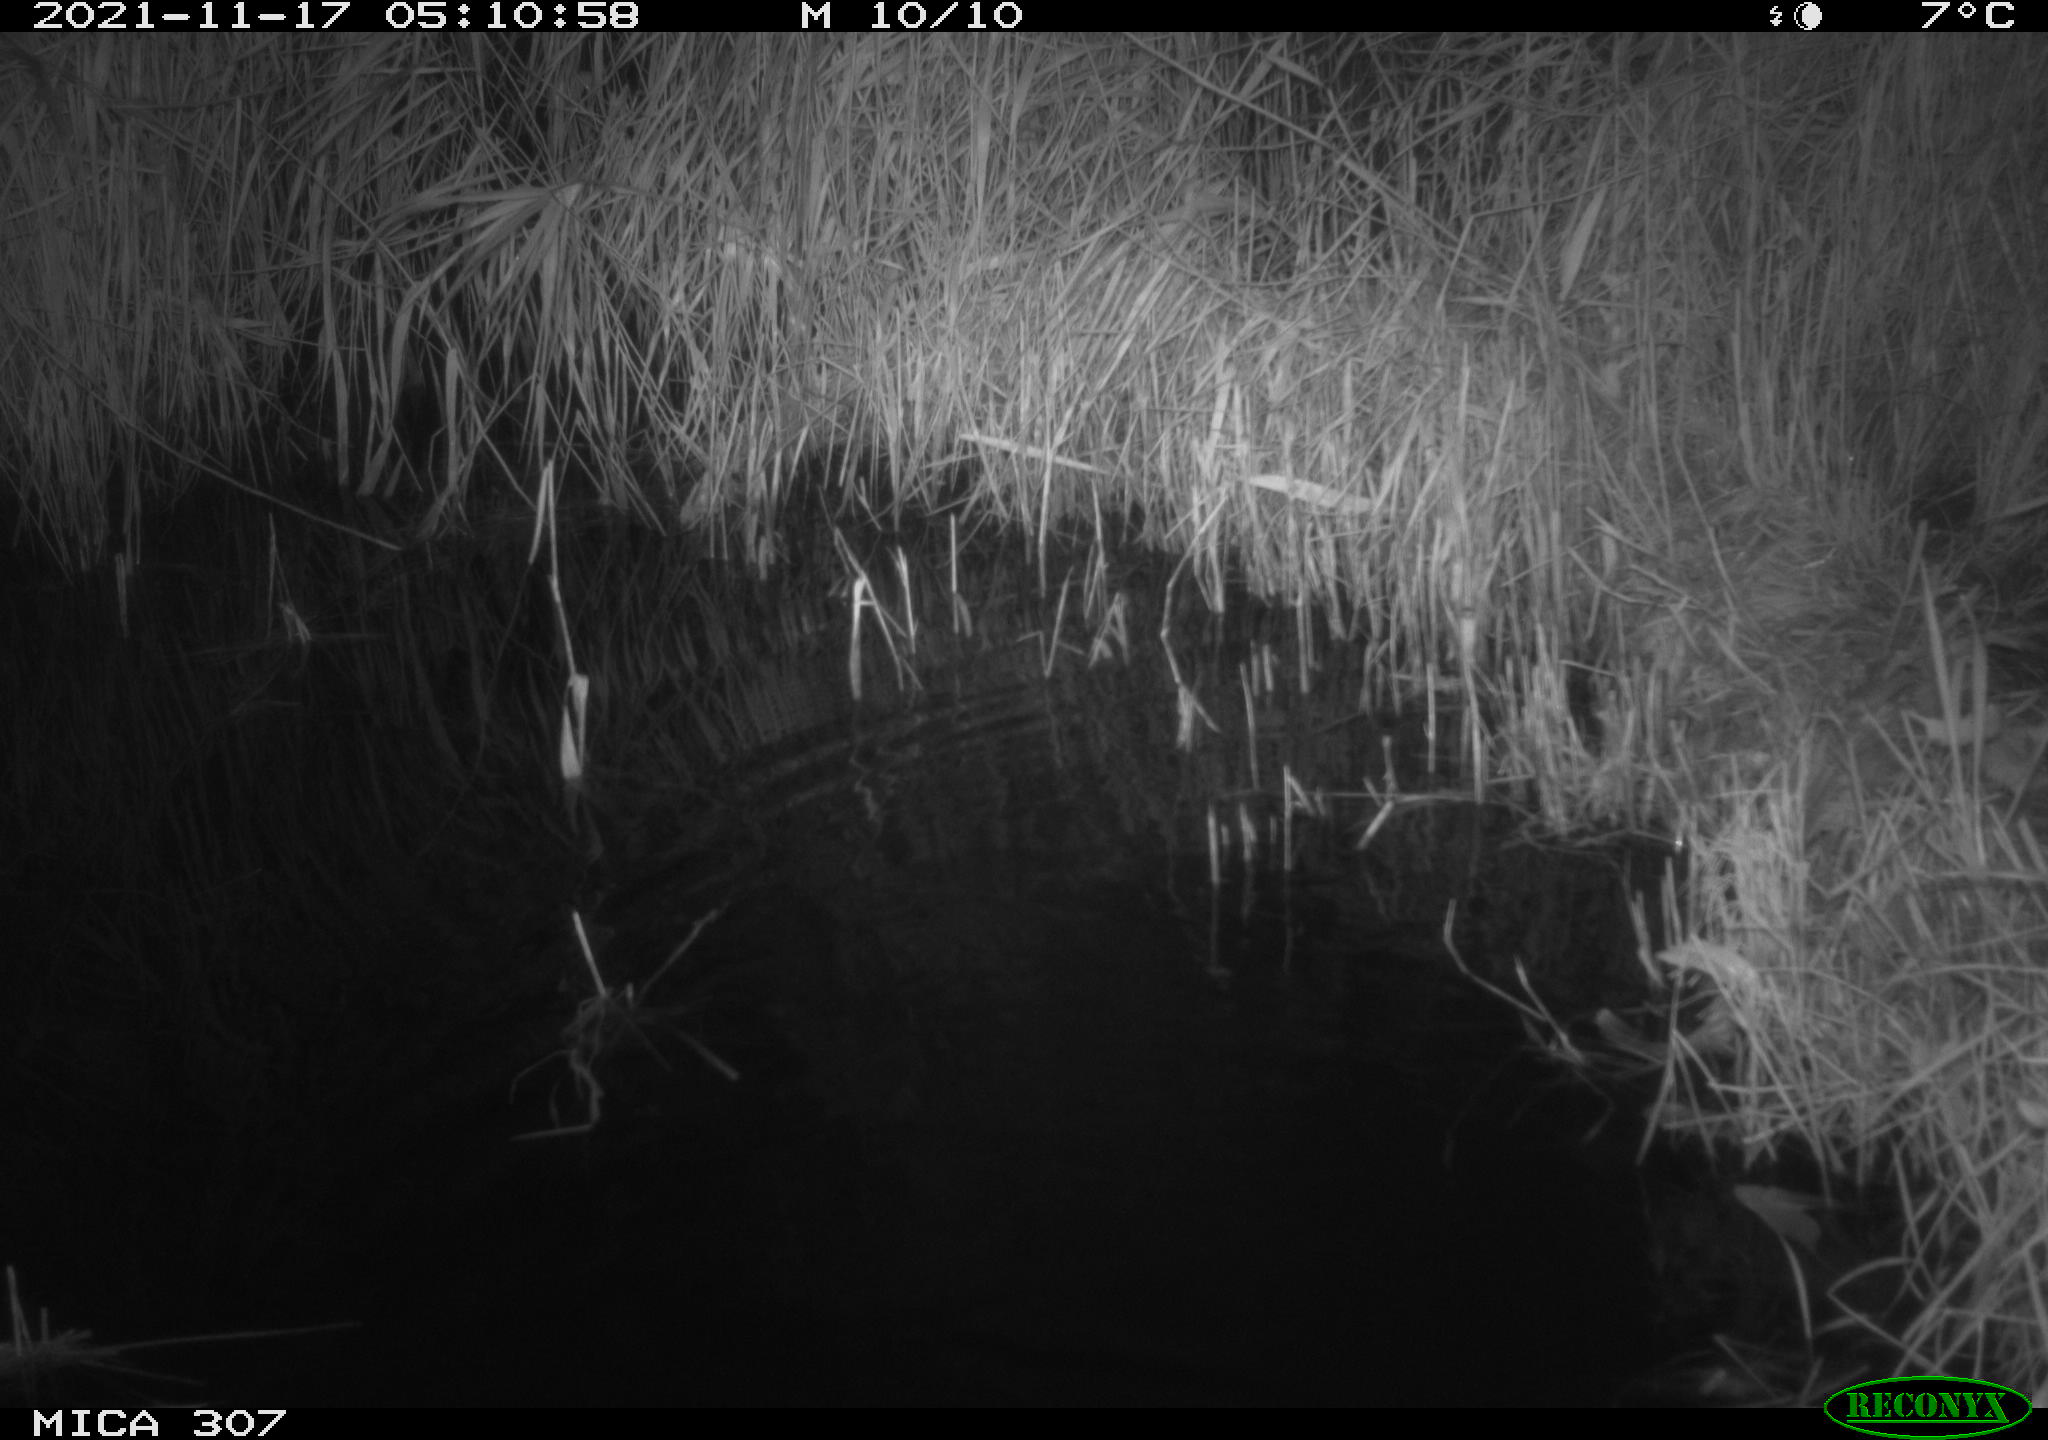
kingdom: Animalia
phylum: Chordata
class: Mammalia
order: Rodentia
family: Muridae
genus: Rattus
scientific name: Rattus norvegicus
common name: Brown rat
